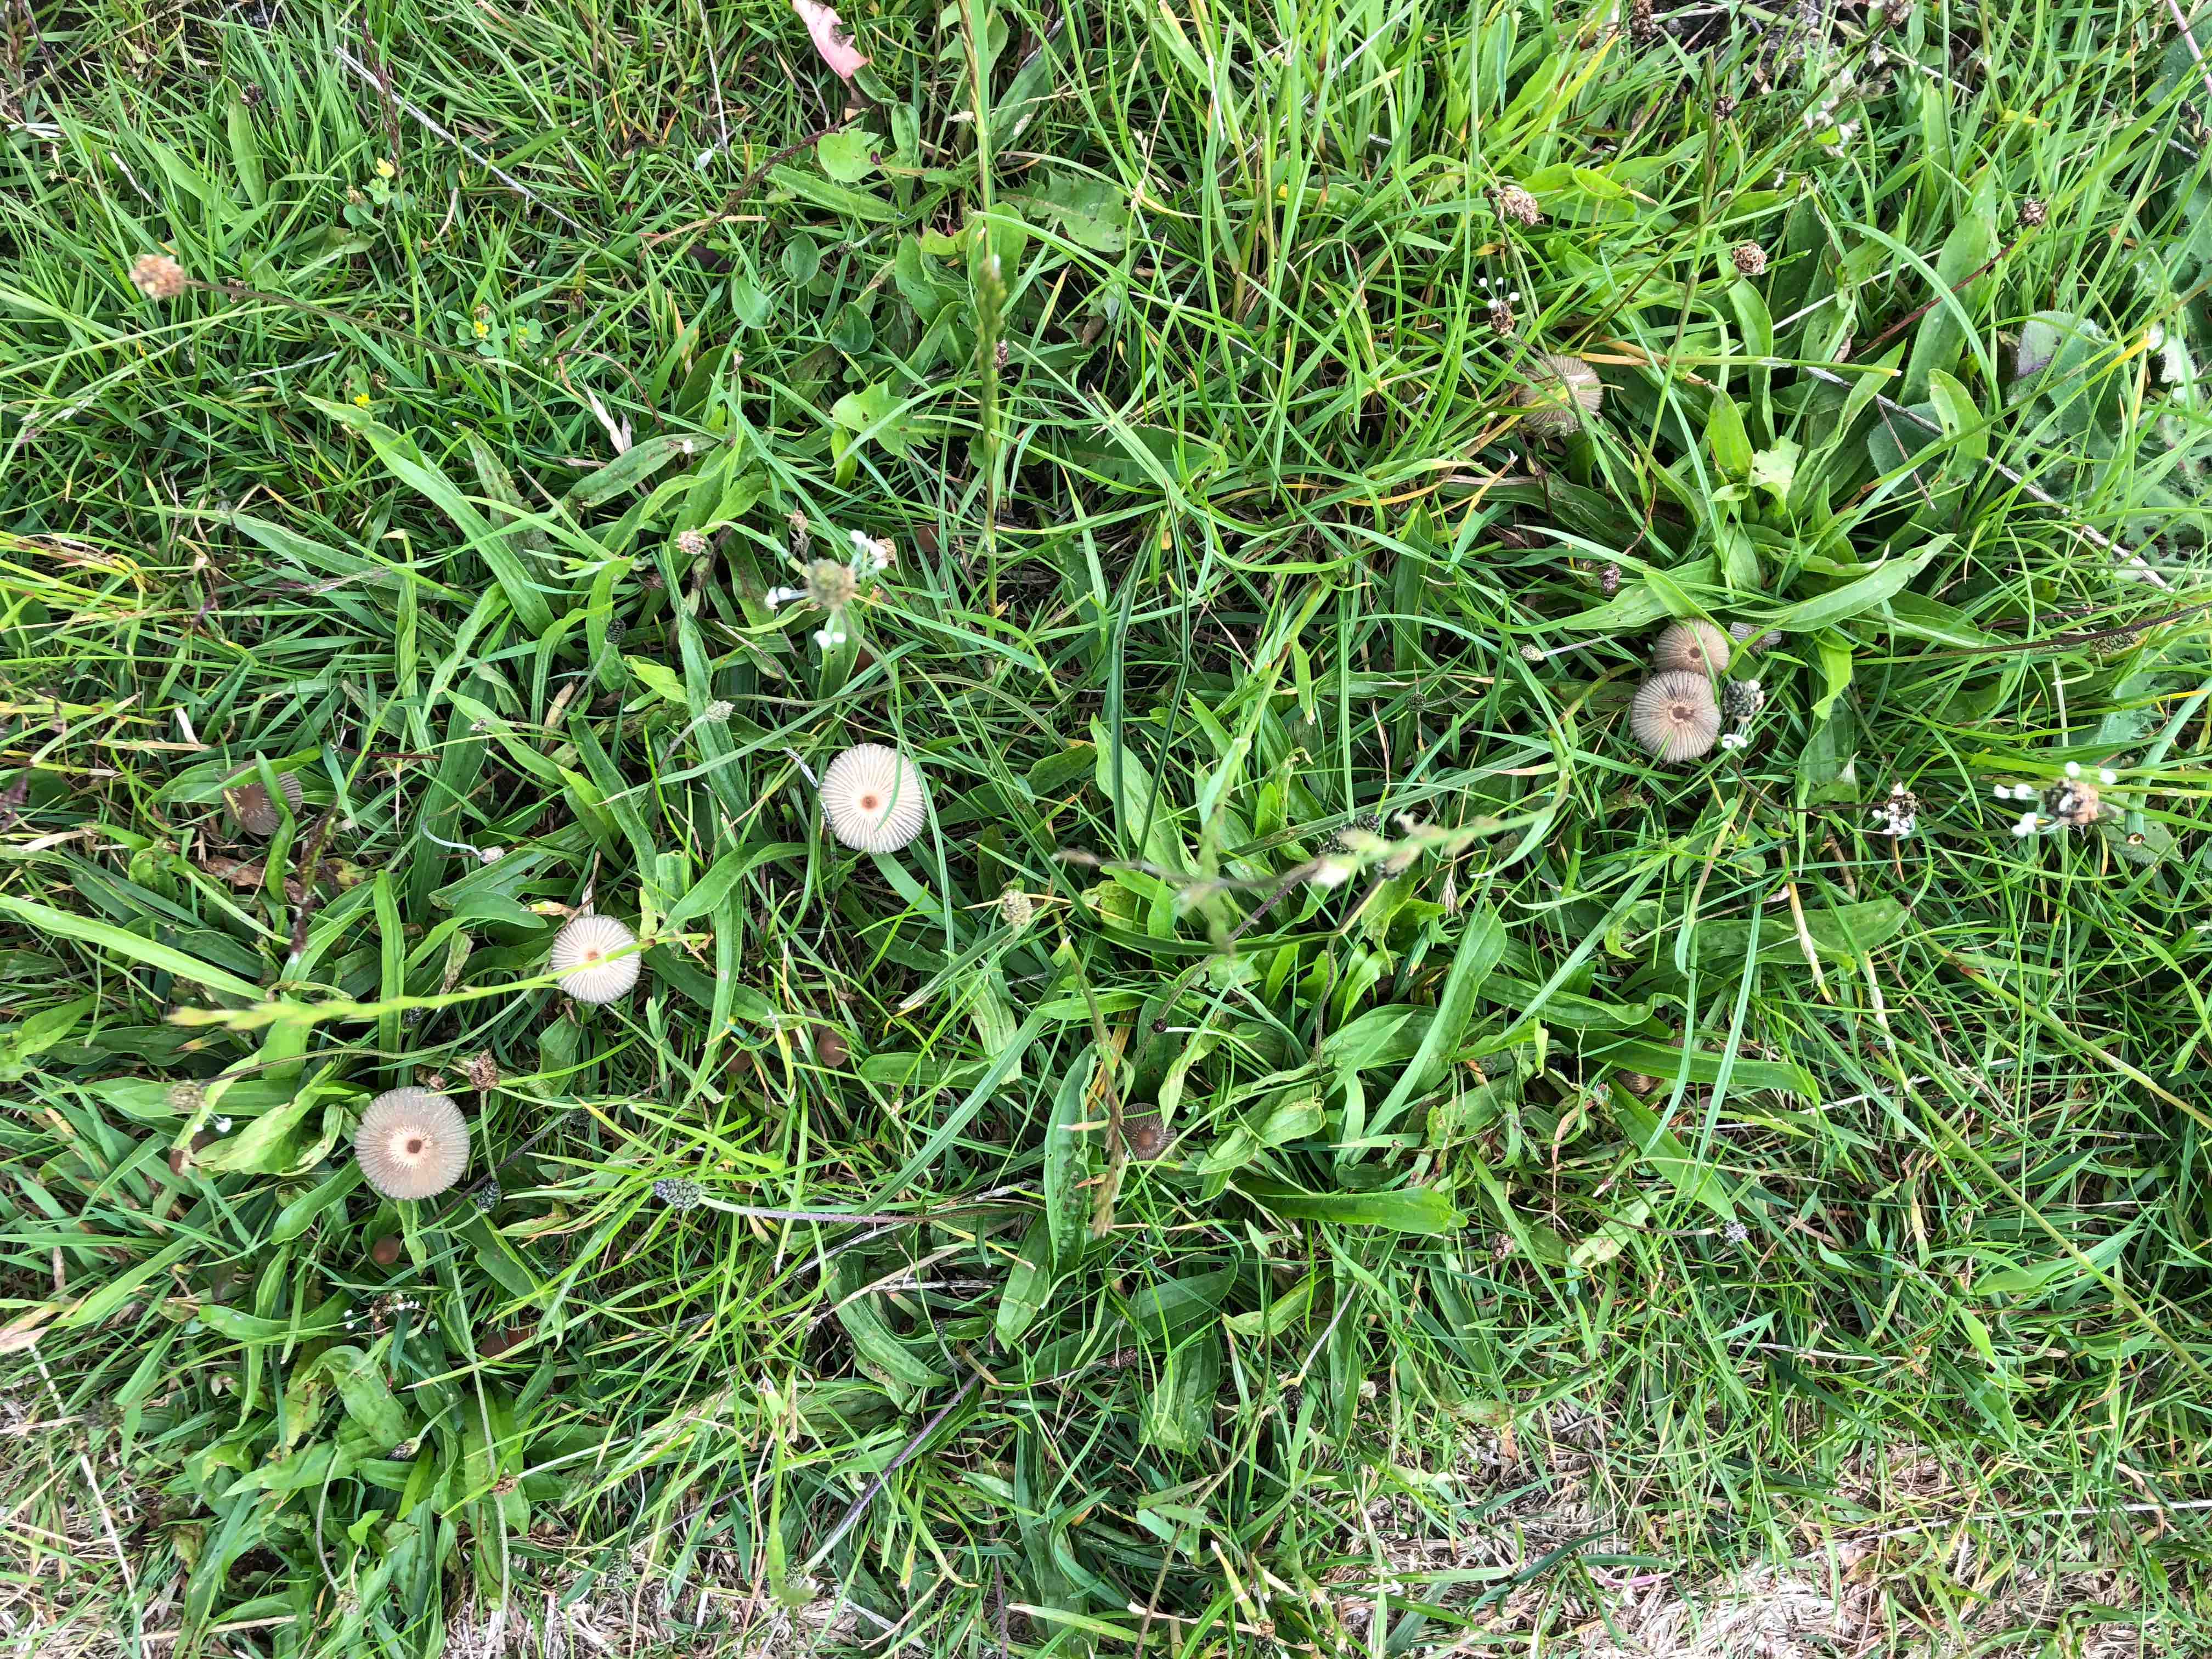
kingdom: Fungi
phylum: Basidiomycota
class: Agaricomycetes
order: Agaricales
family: Psathyrellaceae
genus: Parasola
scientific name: Parasola
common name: hjulhat
